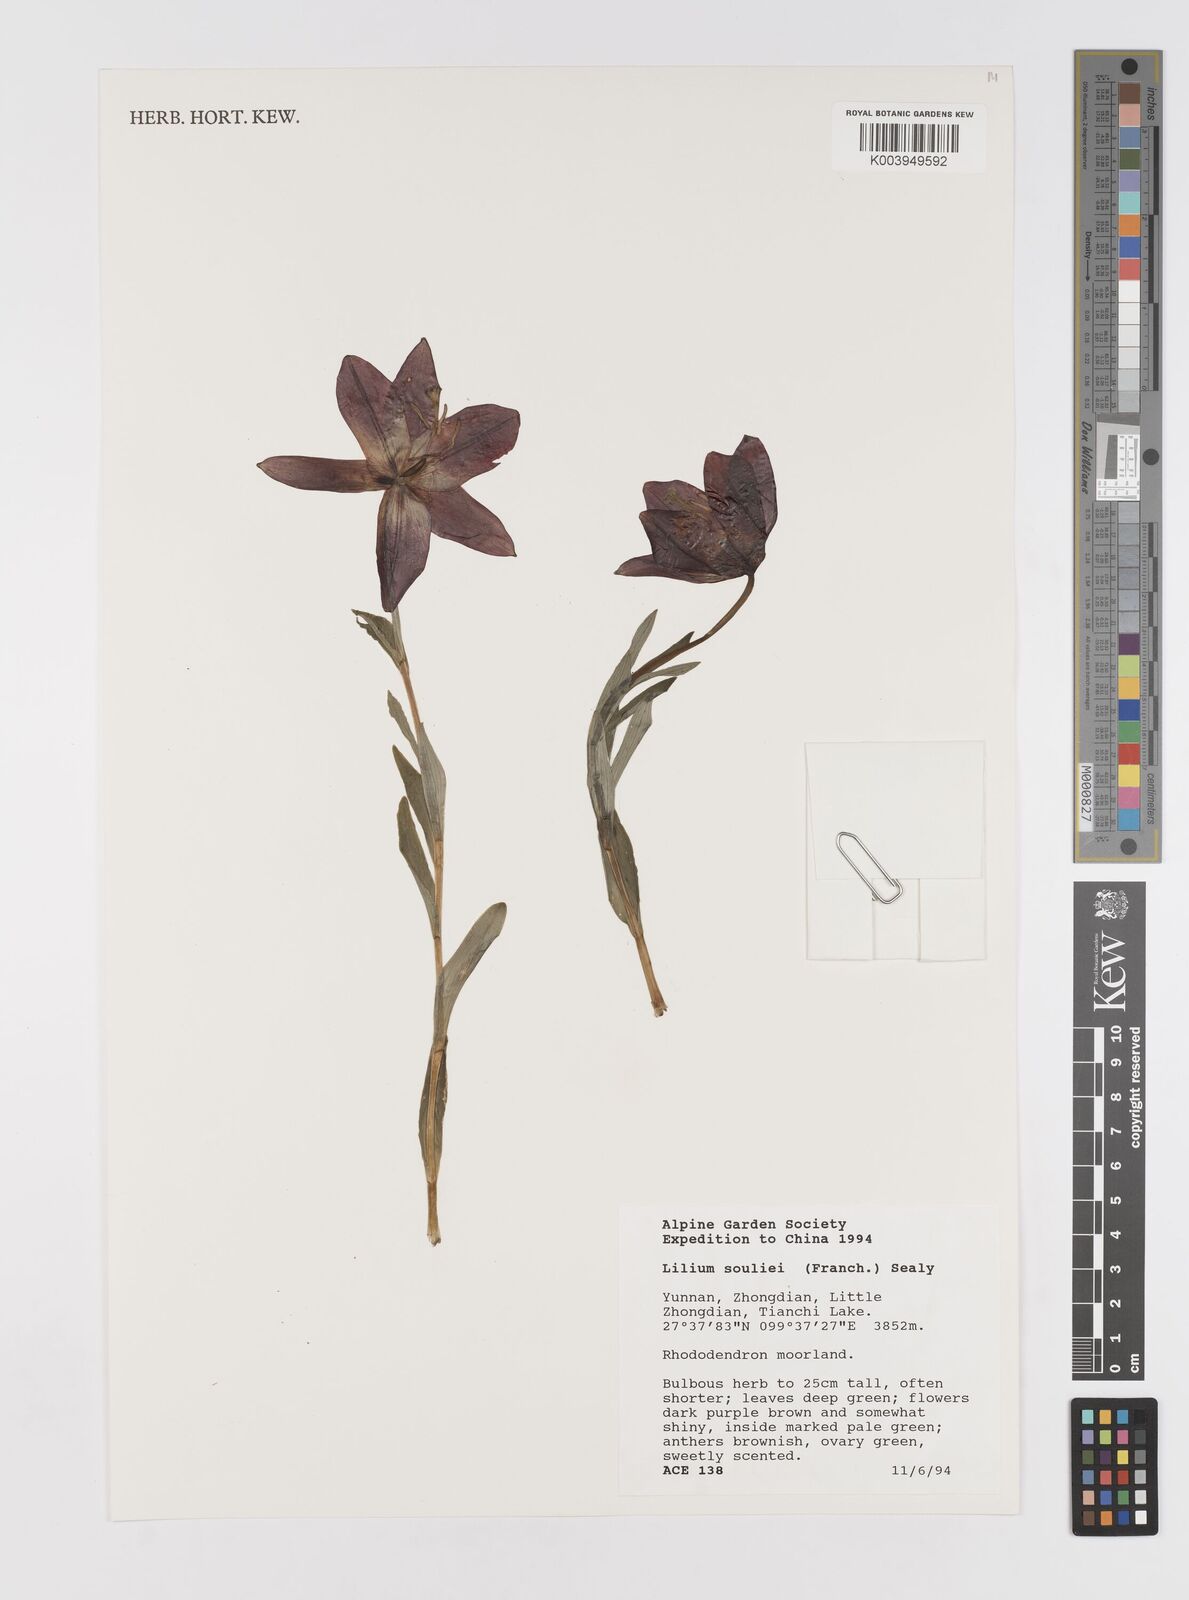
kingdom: Plantae
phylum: Tracheophyta
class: Liliopsida
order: Liliales
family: Liliaceae
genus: Lilium
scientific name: Lilium souliei
